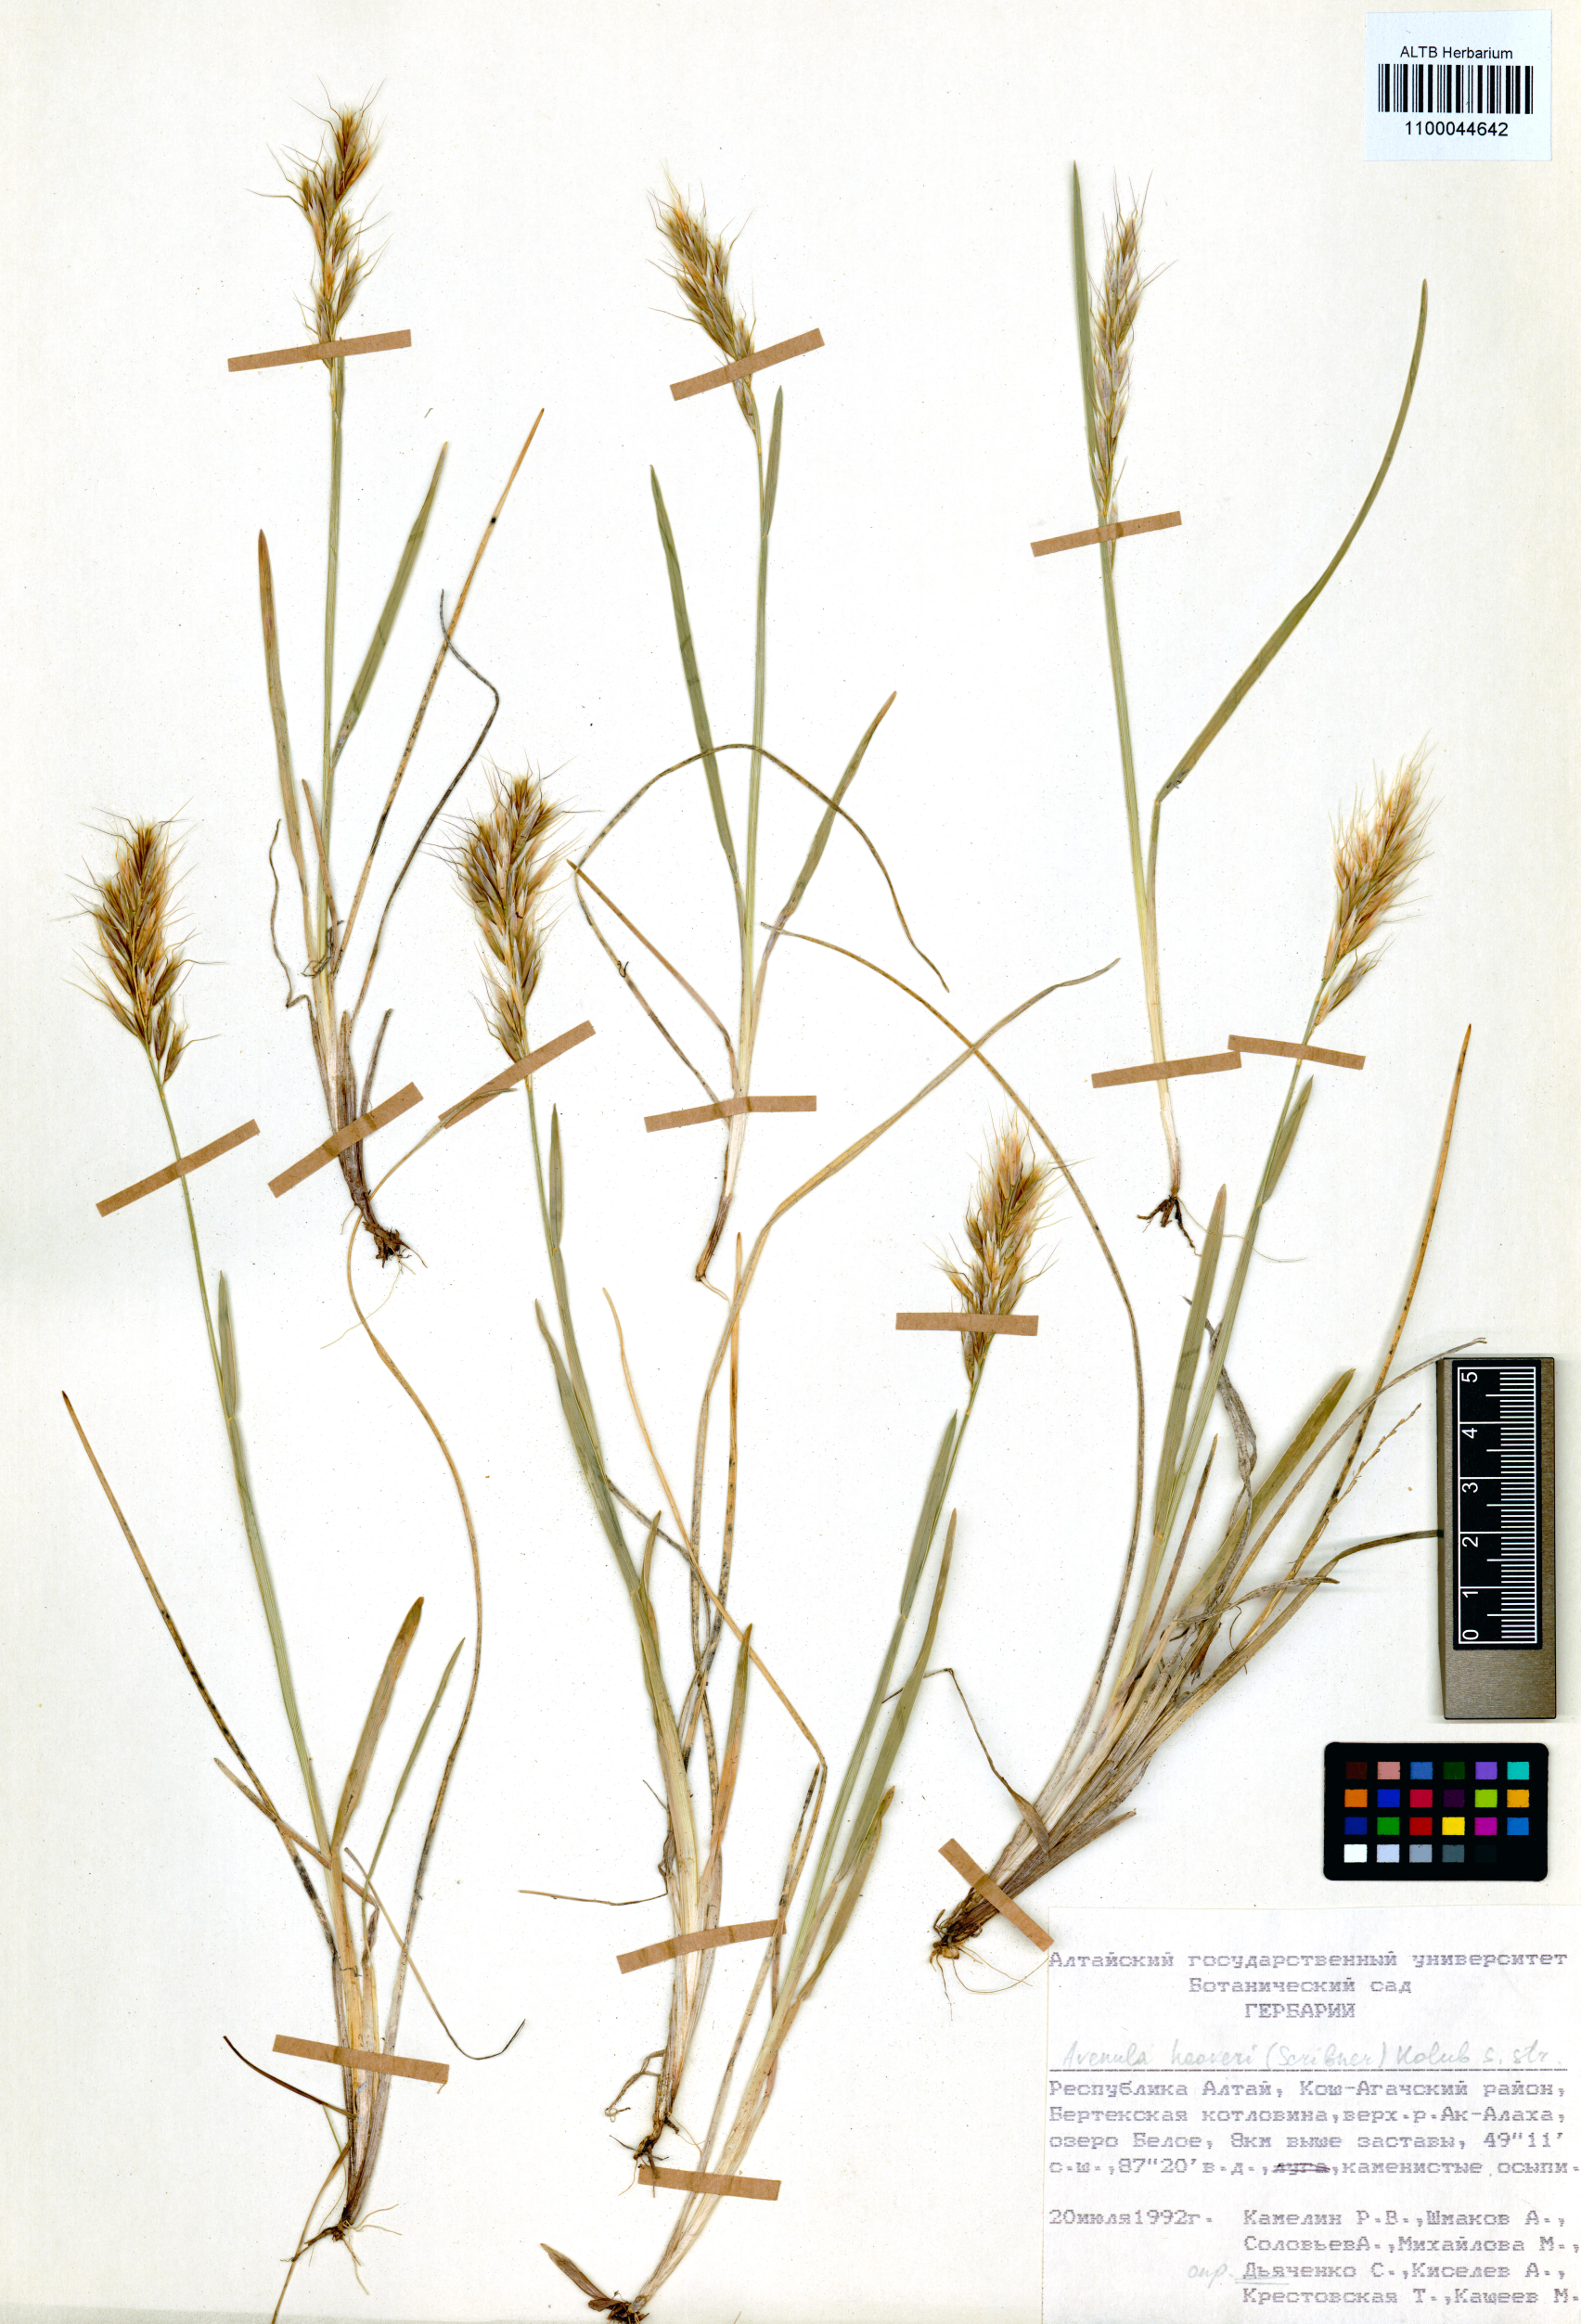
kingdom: Plantae
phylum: Tracheophyta
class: Liliopsida
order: Poales
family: Poaceae
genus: Helictochloa
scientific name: Helictochloa hookeri
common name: Hooker's alpine oatgrass
